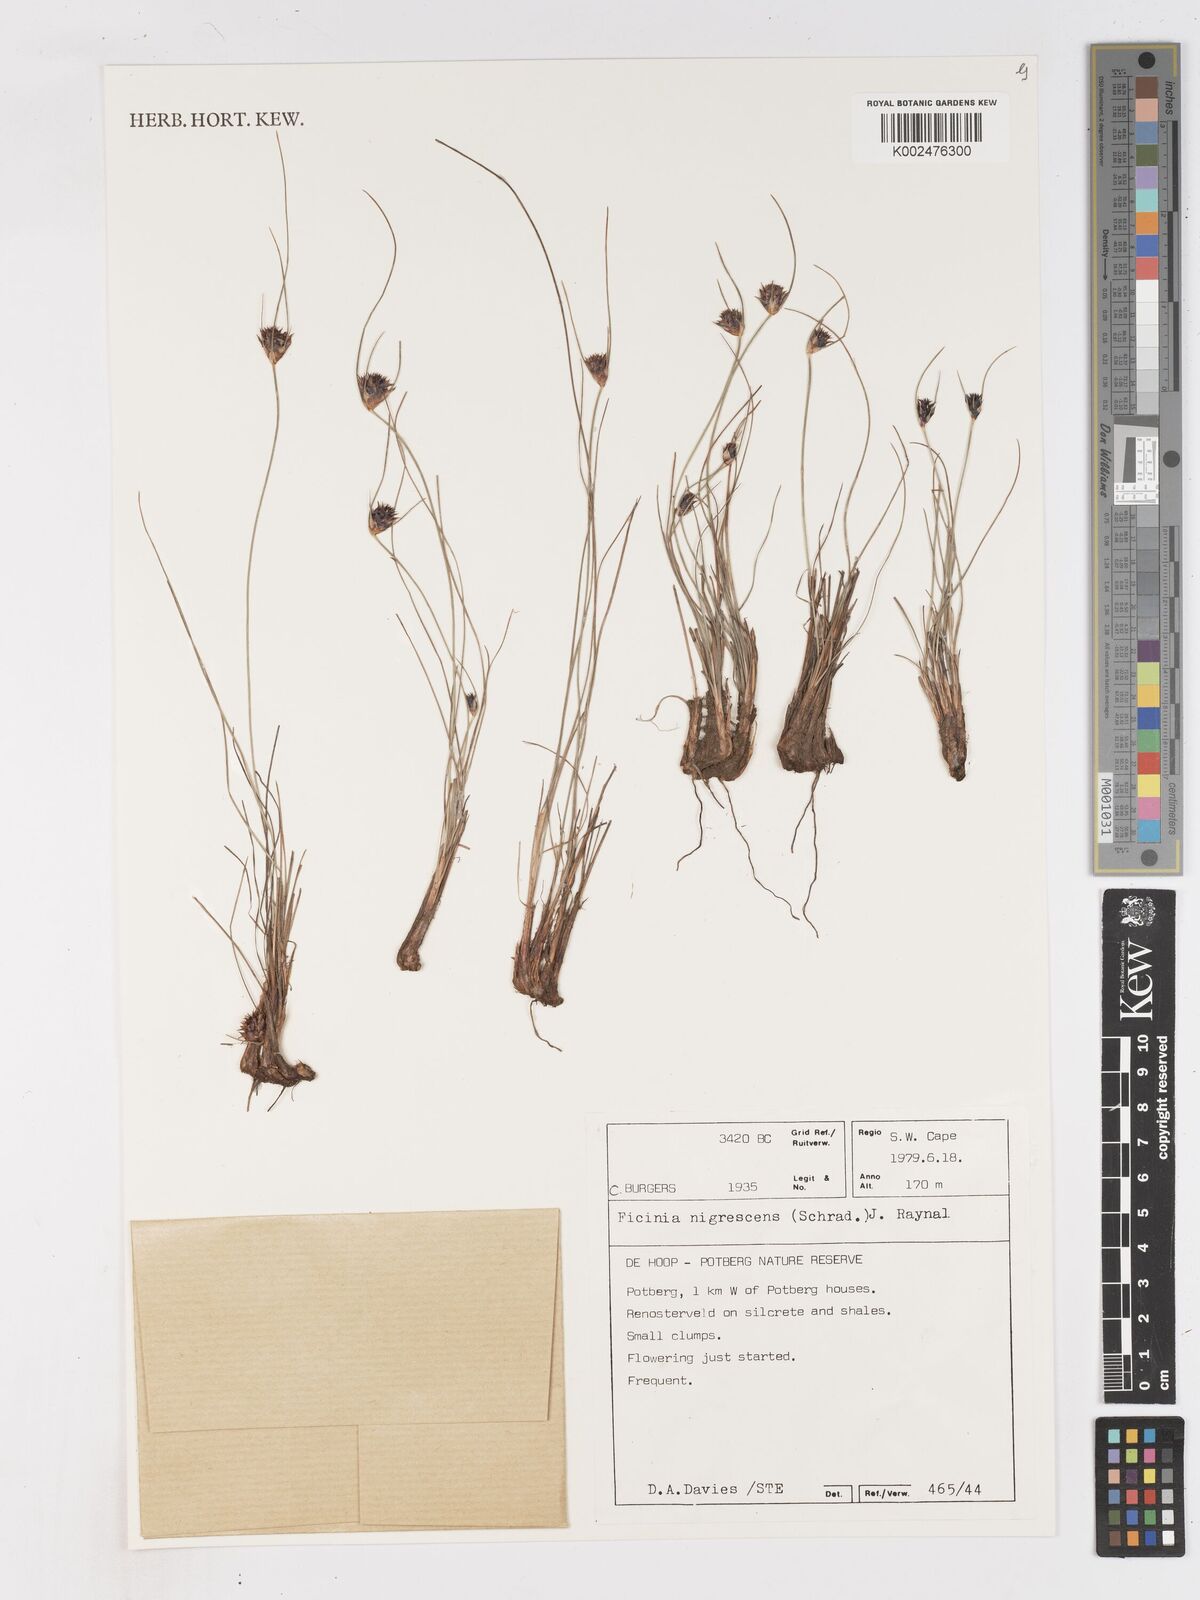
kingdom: Plantae
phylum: Tracheophyta
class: Liliopsida
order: Poales
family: Cyperaceae
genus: Ficinia
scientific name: Ficinia nigrescens
